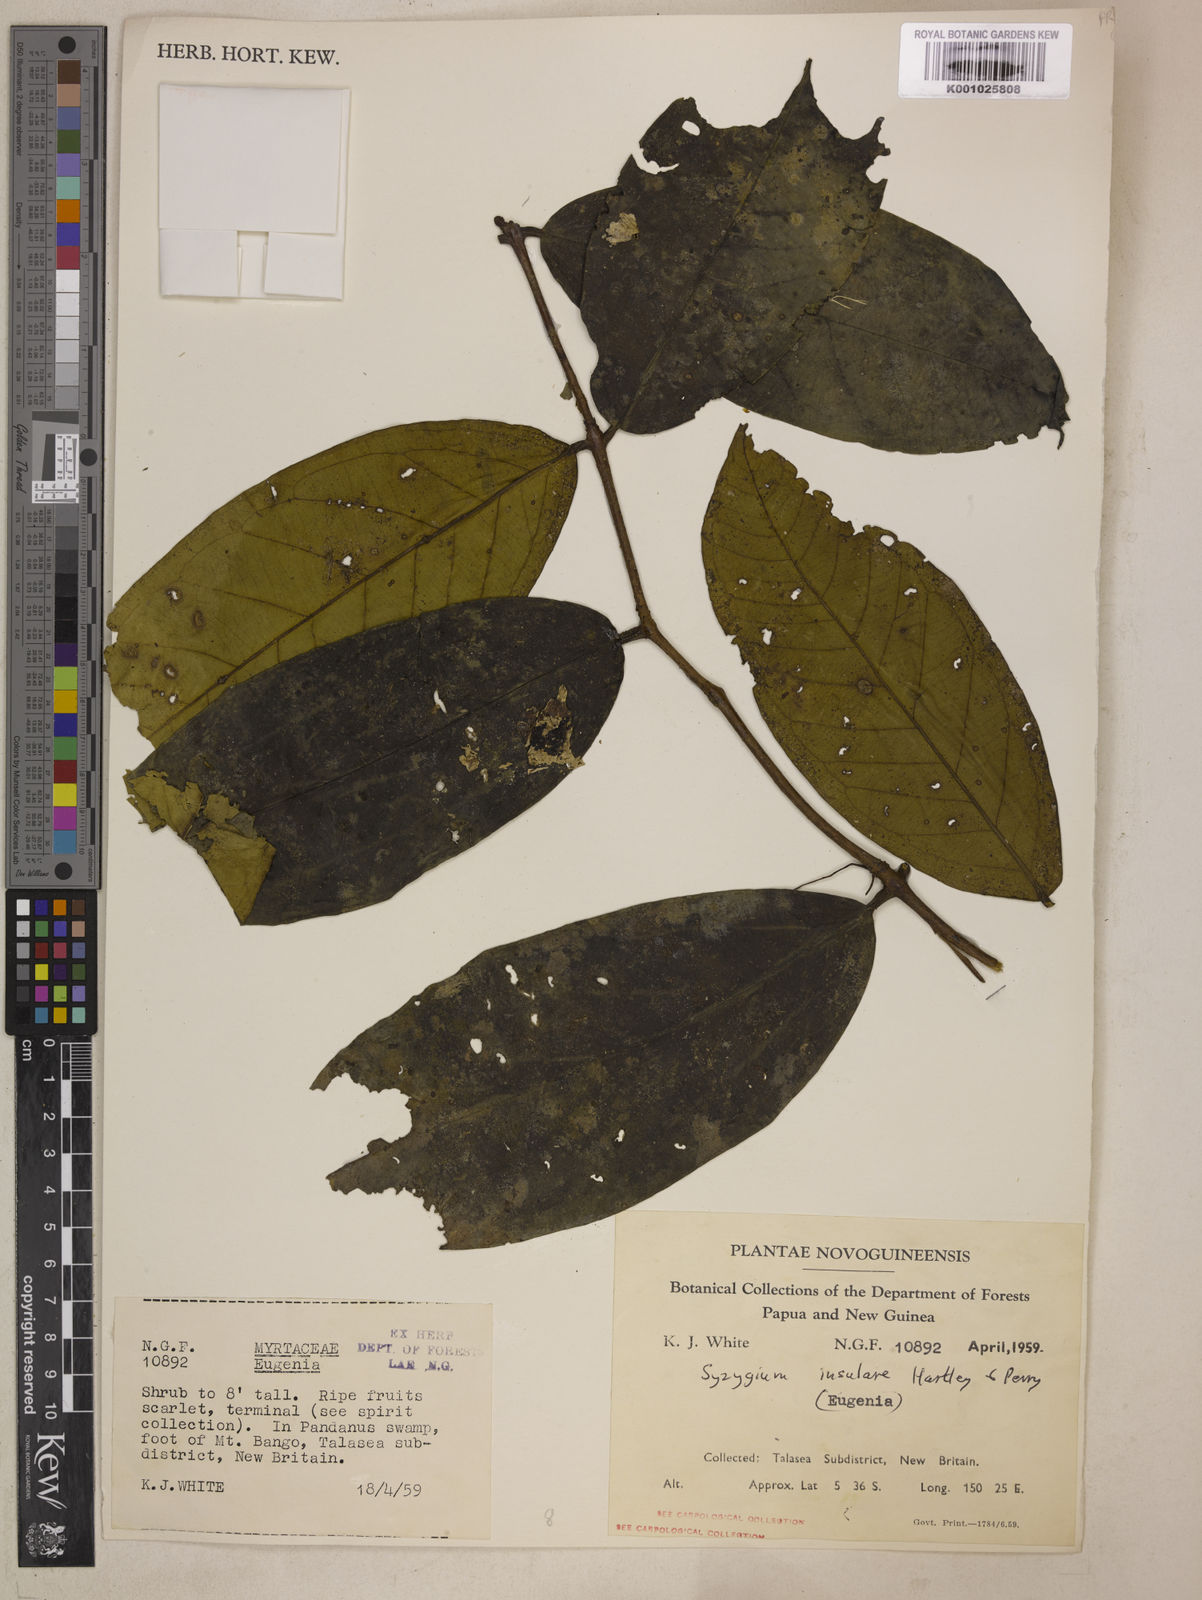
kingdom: Plantae
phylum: Tracheophyta
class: Magnoliopsida
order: Myrtales
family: Myrtaceae
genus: Syzygium
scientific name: Syzygium insulare
